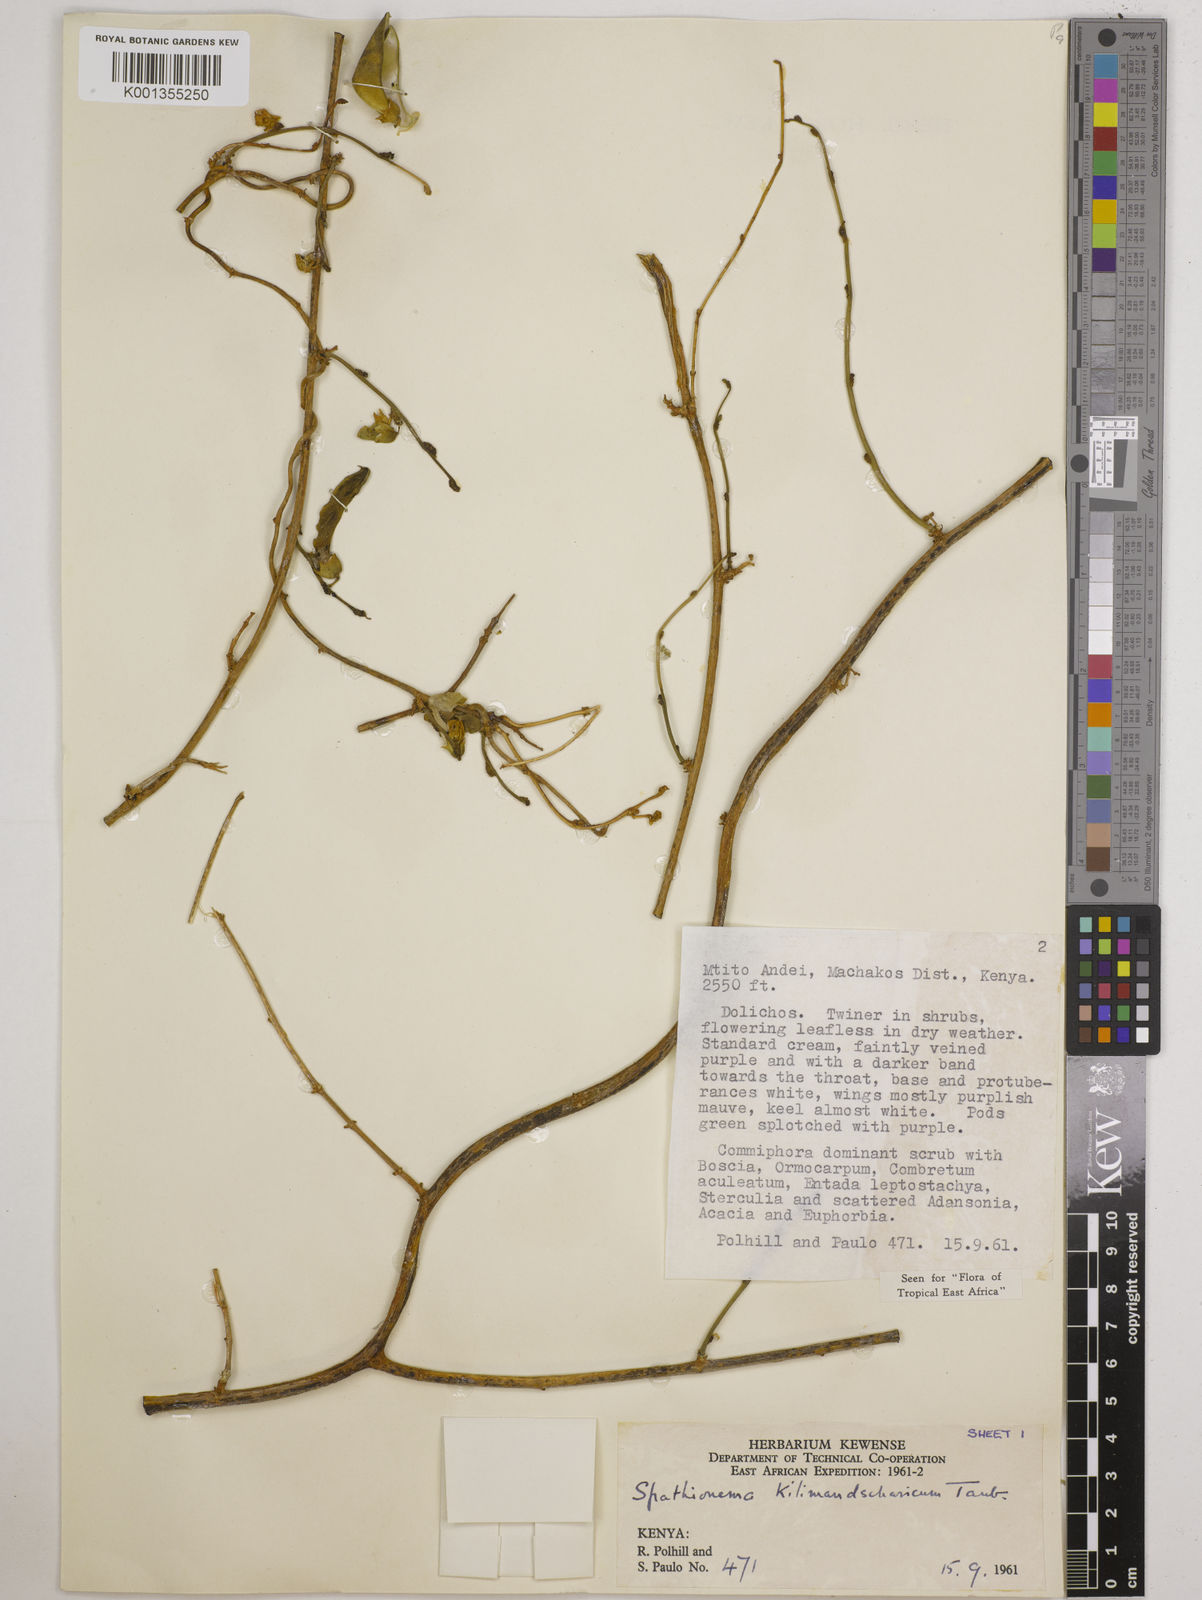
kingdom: Plantae
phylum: Tracheophyta
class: Magnoliopsida
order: Fabales
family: Fabaceae
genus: Spathionema
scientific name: Spathionema kilimandscharicum
